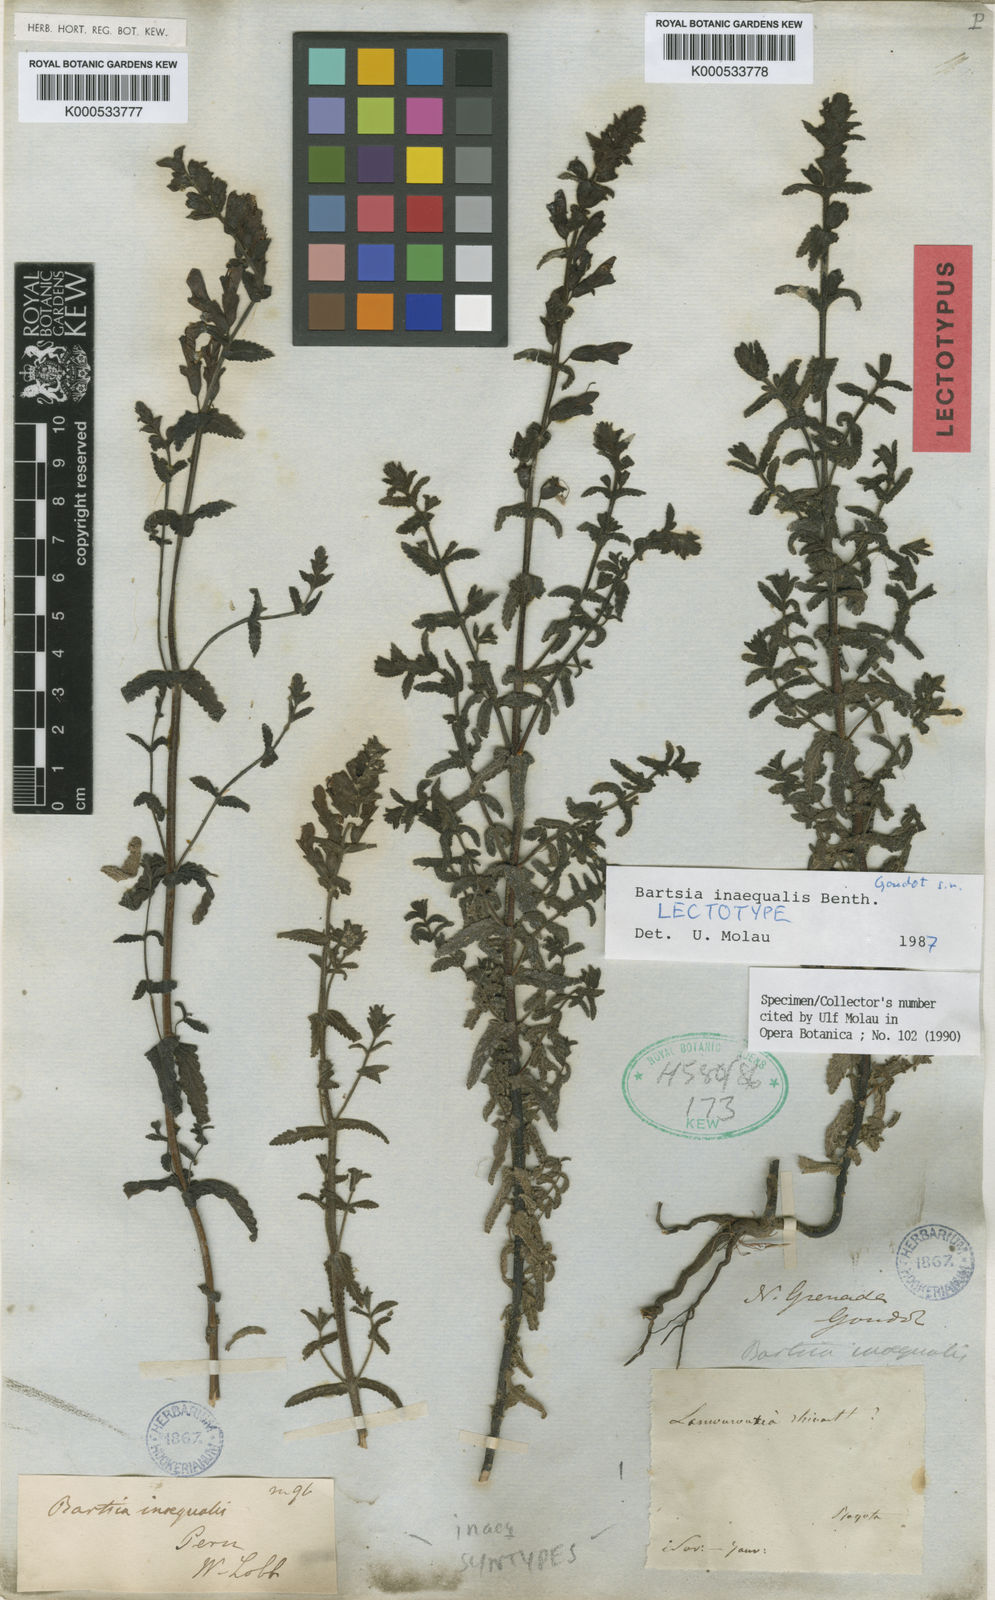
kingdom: Plantae
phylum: Tracheophyta
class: Magnoliopsida
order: Lamiales
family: Orobanchaceae
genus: Neobartsia
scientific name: Neobartsia inaequalis
